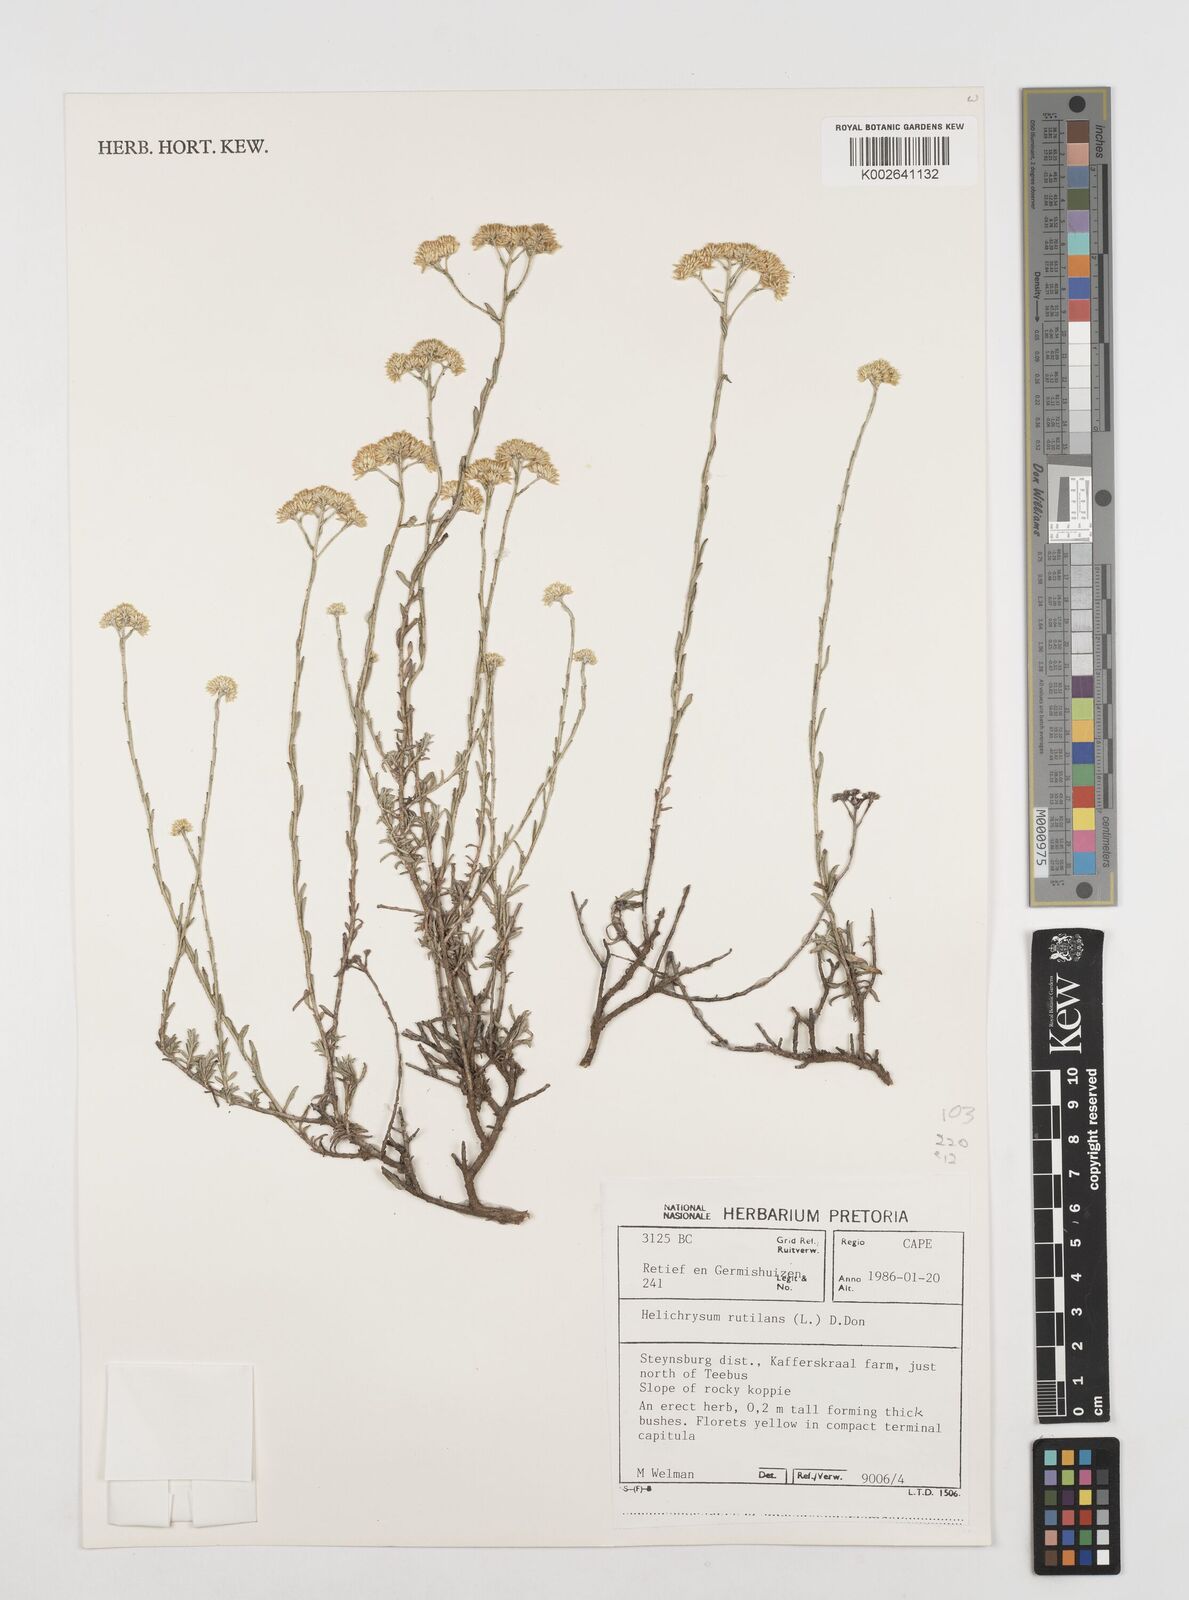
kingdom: Plantae
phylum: Tracheophyta
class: Magnoliopsida
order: Asterales
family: Asteraceae
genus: Helichrysum
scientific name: Helichrysum rutilans
